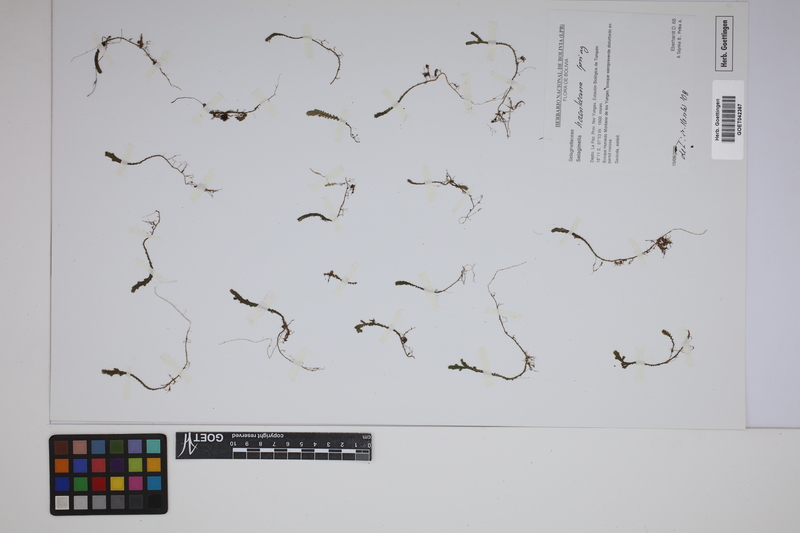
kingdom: Plantae
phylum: Tracheophyta
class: Lycopodiopsida
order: Selaginellales
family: Selaginellaceae
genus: Selaginella
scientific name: Selaginella haenkeana
